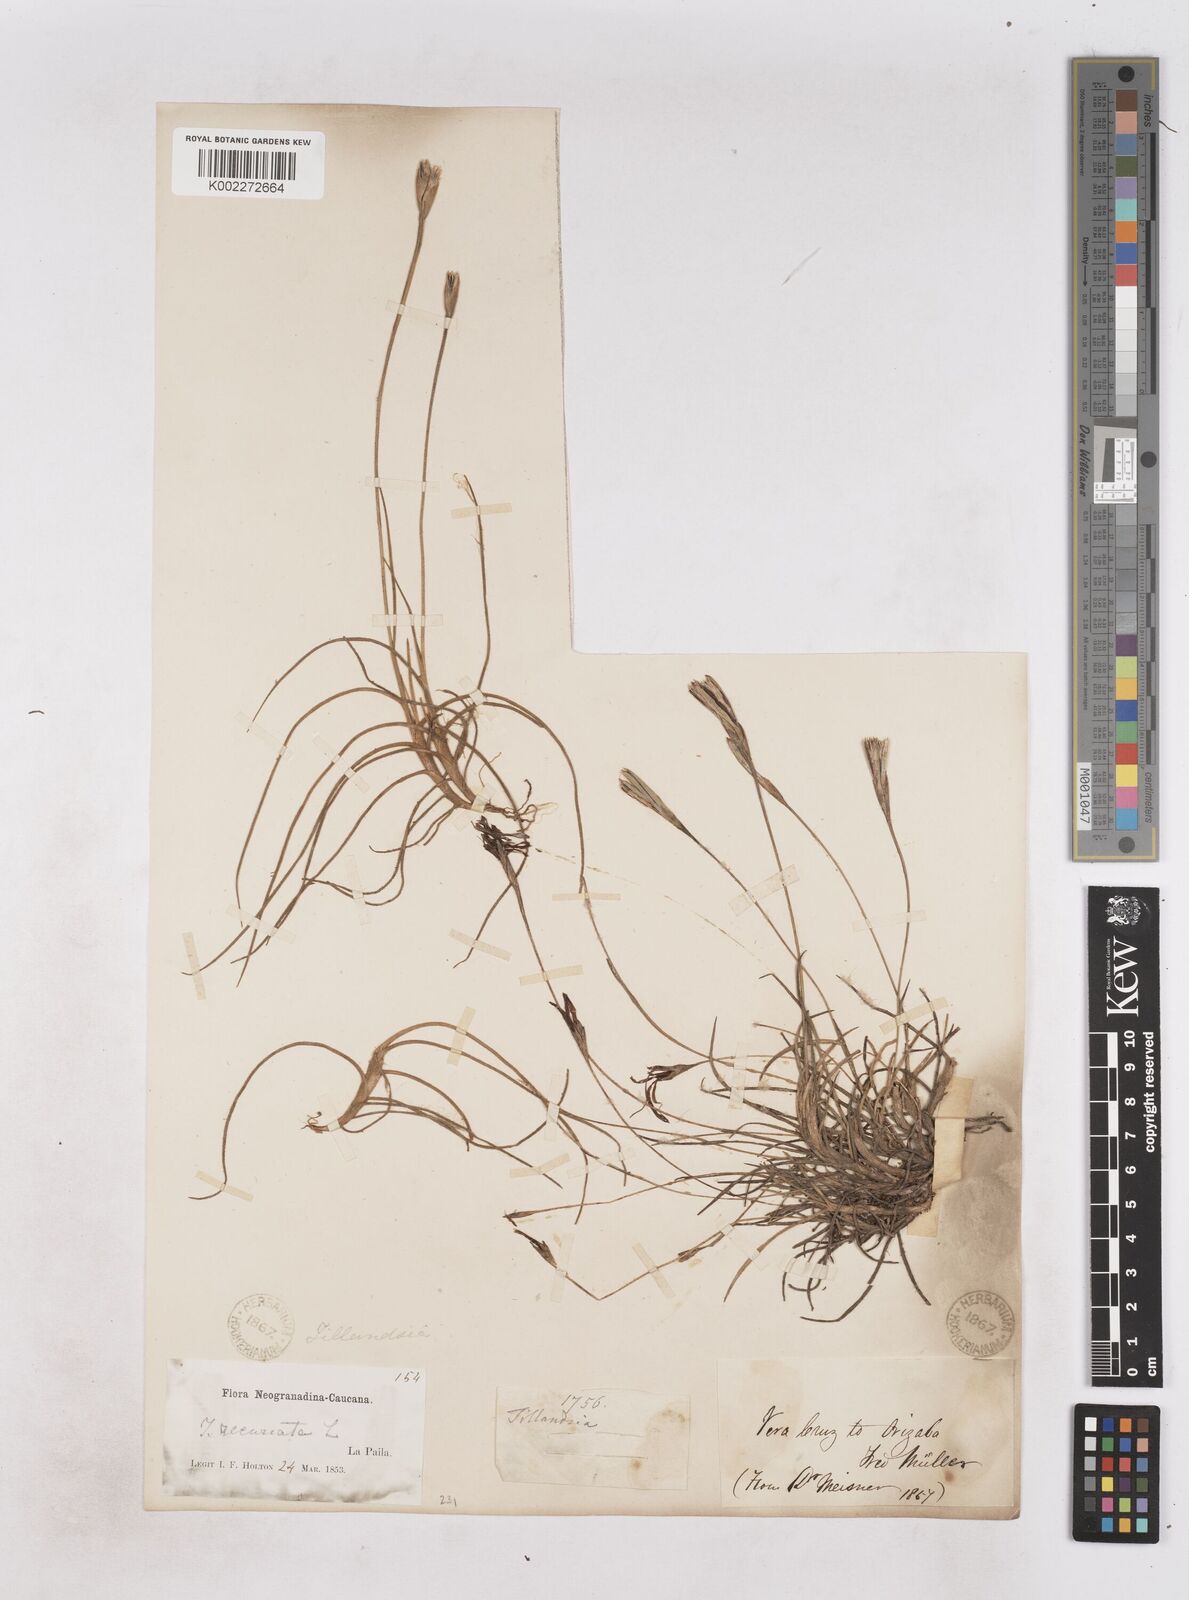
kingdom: Plantae
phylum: Tracheophyta
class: Liliopsida
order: Poales
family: Bromeliaceae
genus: Tillandsia
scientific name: Tillandsia recurvata
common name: Small ballmoss
